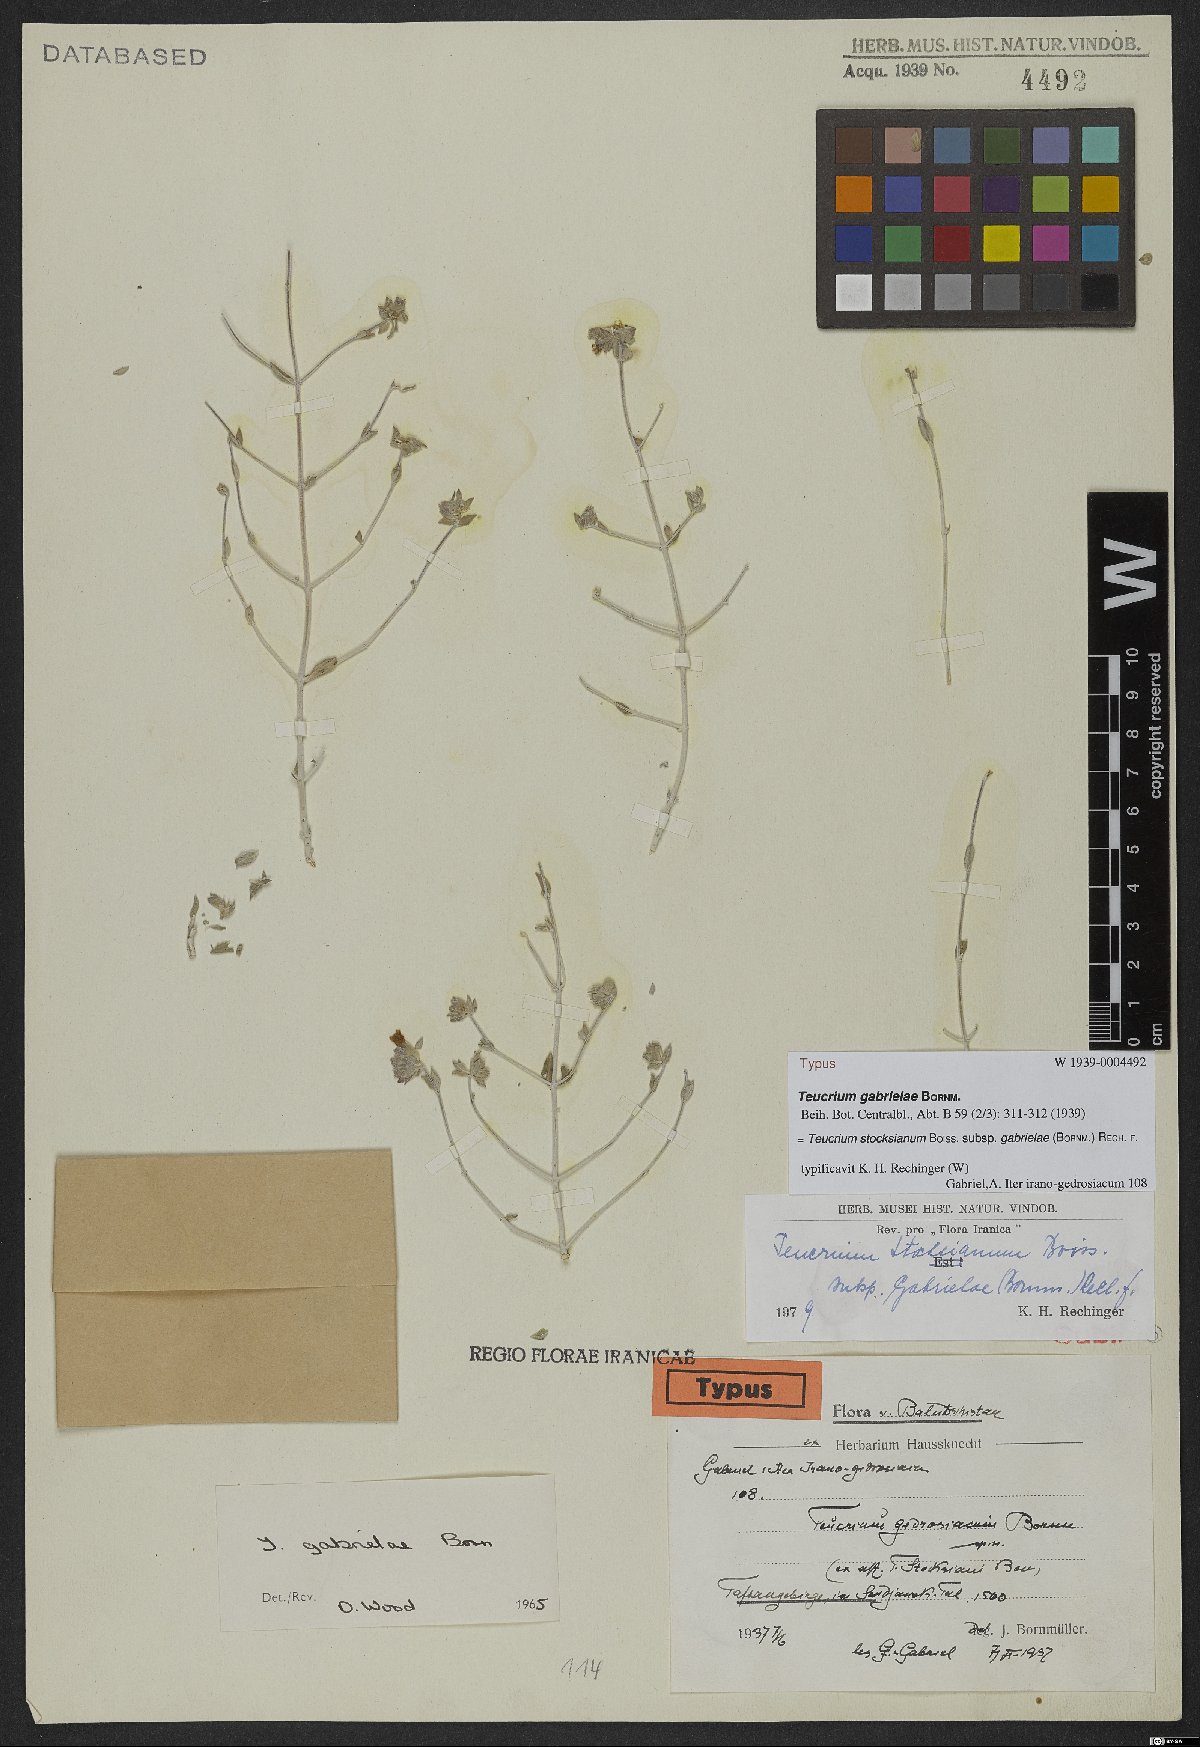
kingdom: Plantae
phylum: Tracheophyta
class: Magnoliopsida
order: Lamiales
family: Lamiaceae
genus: Teucrium
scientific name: Teucrium stocksianum
